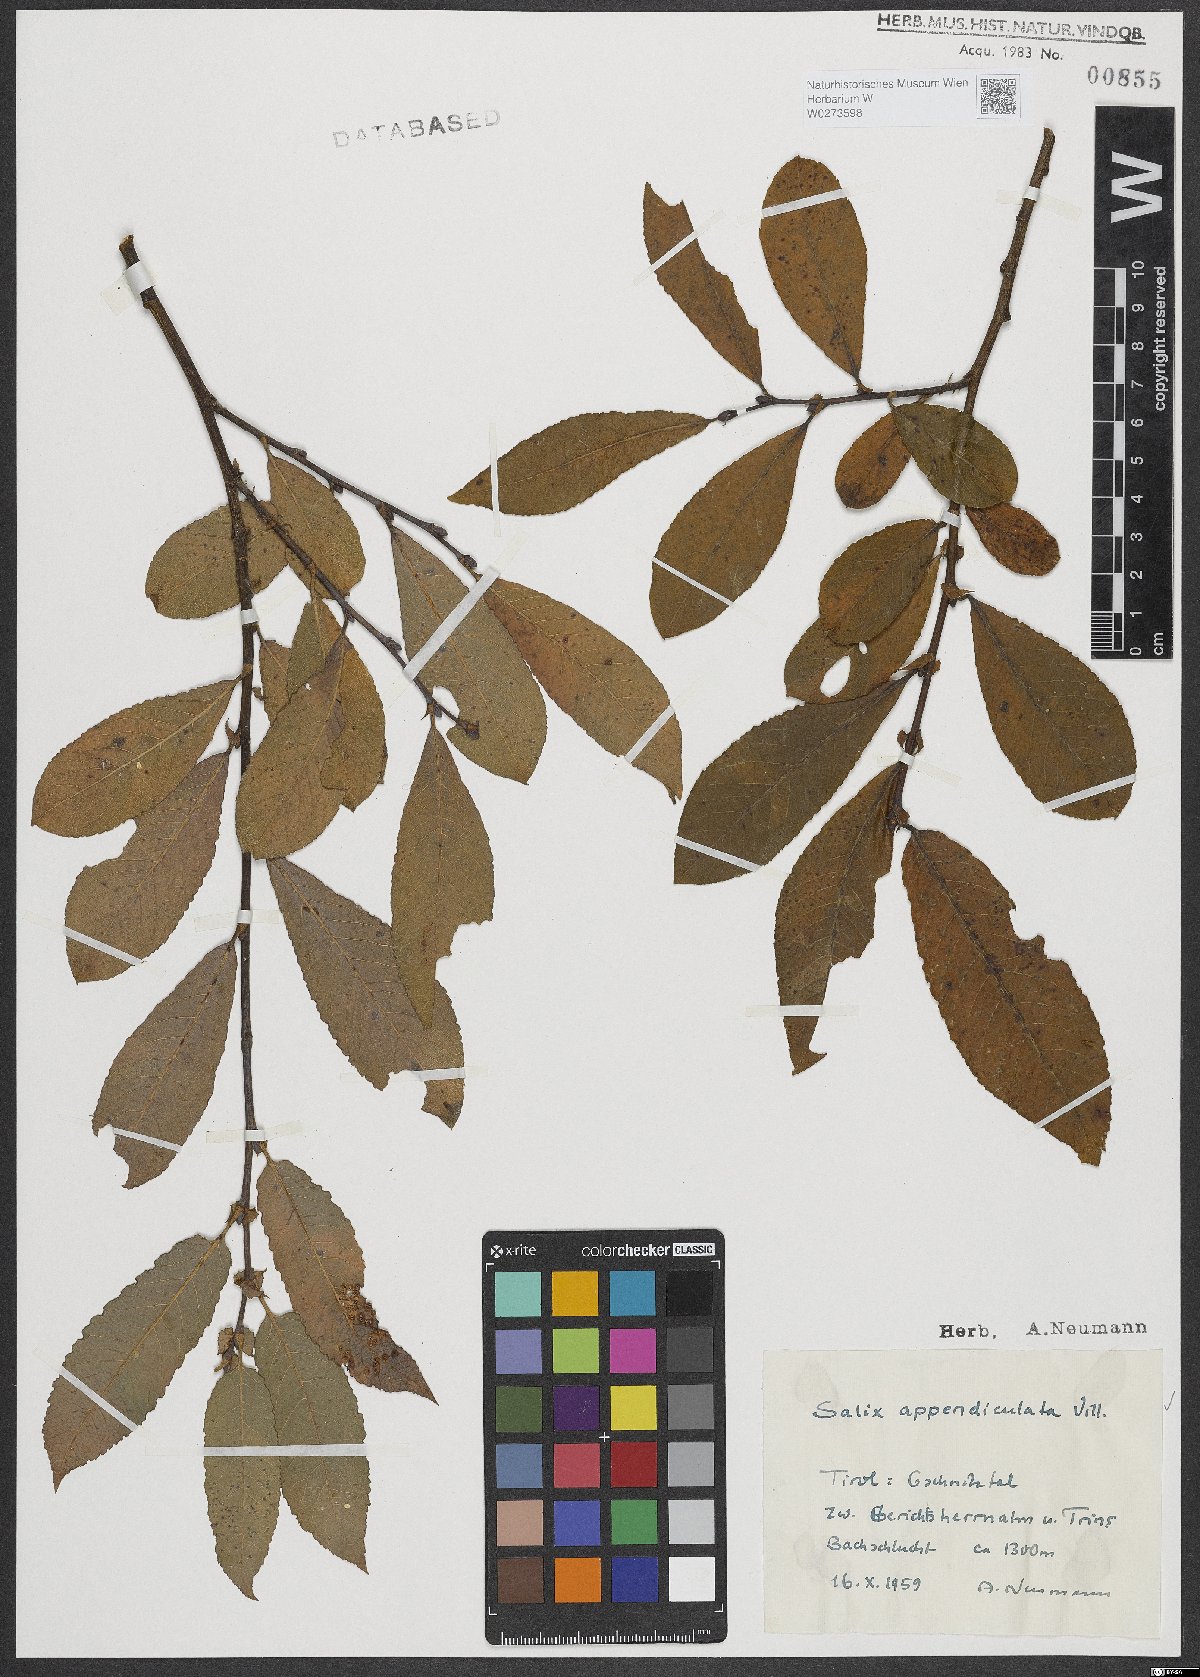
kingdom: Plantae
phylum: Tracheophyta
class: Magnoliopsida
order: Malpighiales
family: Salicaceae
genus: Salix
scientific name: Salix appendiculata
